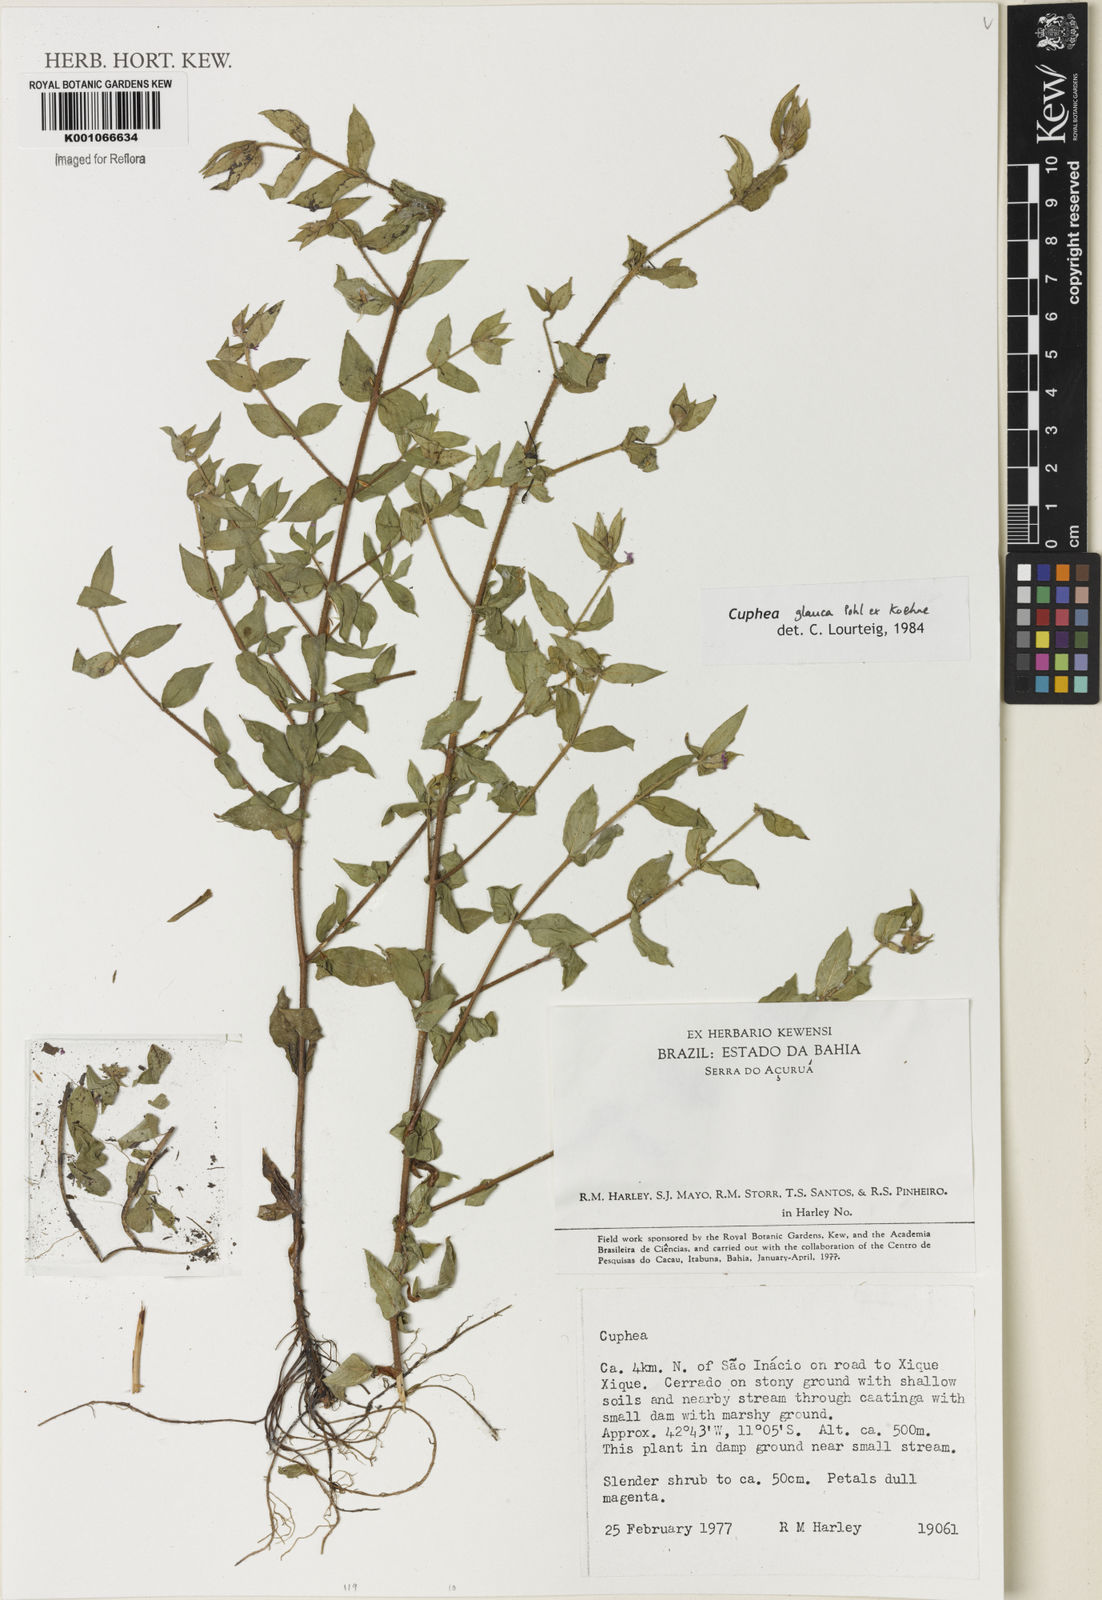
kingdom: Plantae
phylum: Tracheophyta
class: Magnoliopsida
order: Myrtales
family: Lythraceae
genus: Cuphea
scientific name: Cuphea glauca
